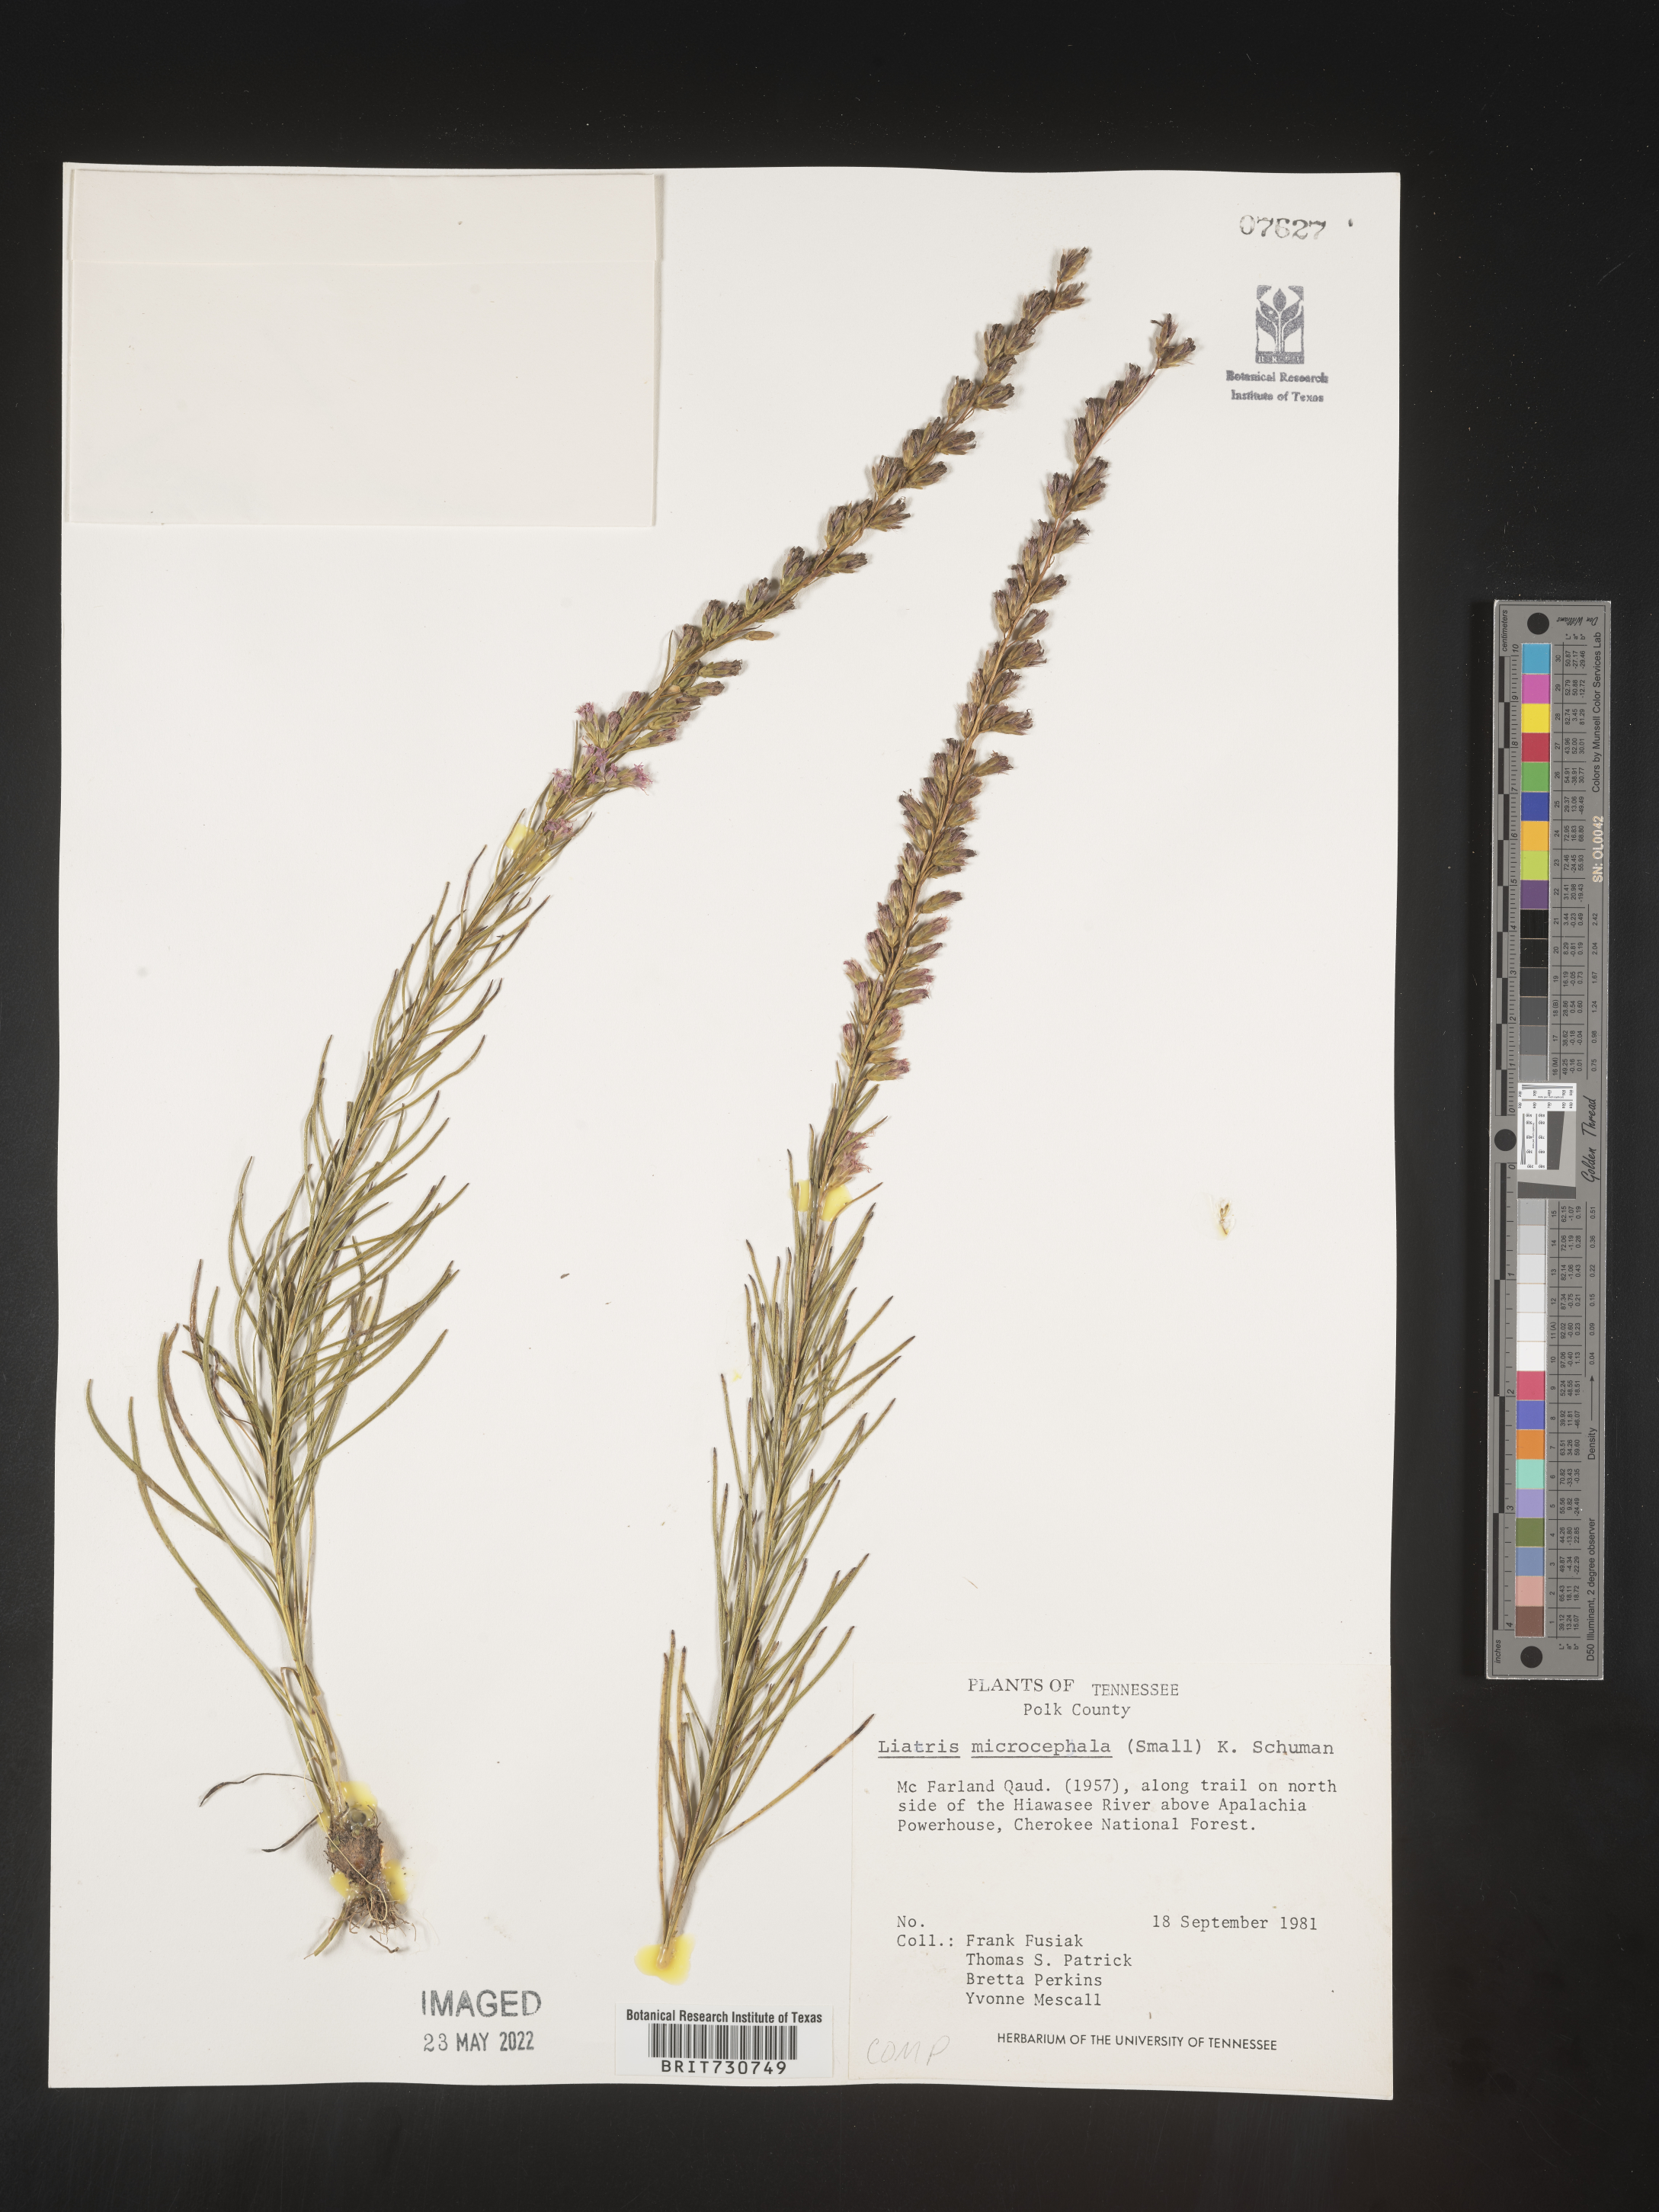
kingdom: Plantae
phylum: Tracheophyta
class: Magnoliopsida
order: Asterales
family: Asteraceae
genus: Liatris
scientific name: Liatris microcephala
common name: Small-head gayfeather
